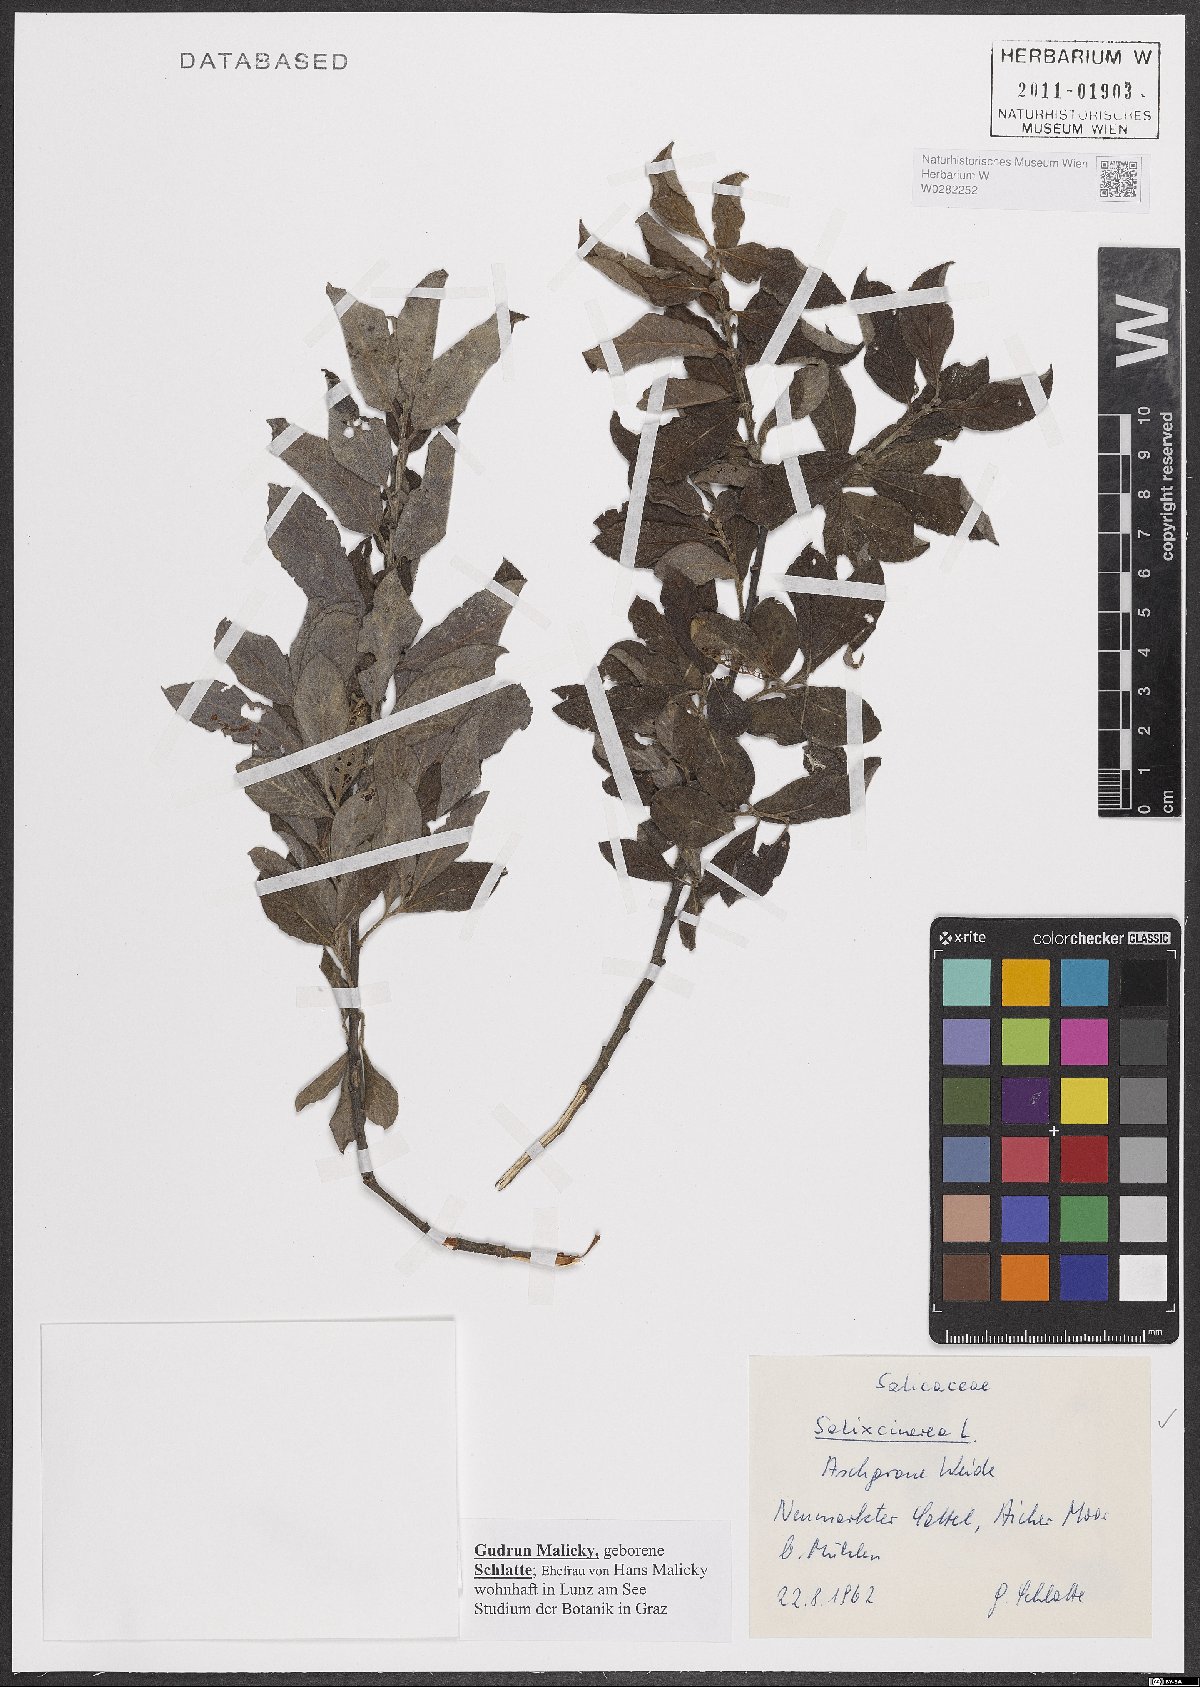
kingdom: Plantae
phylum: Tracheophyta
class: Magnoliopsida
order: Malpighiales
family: Salicaceae
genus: Salix
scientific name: Salix cinerea
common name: Common sallow
